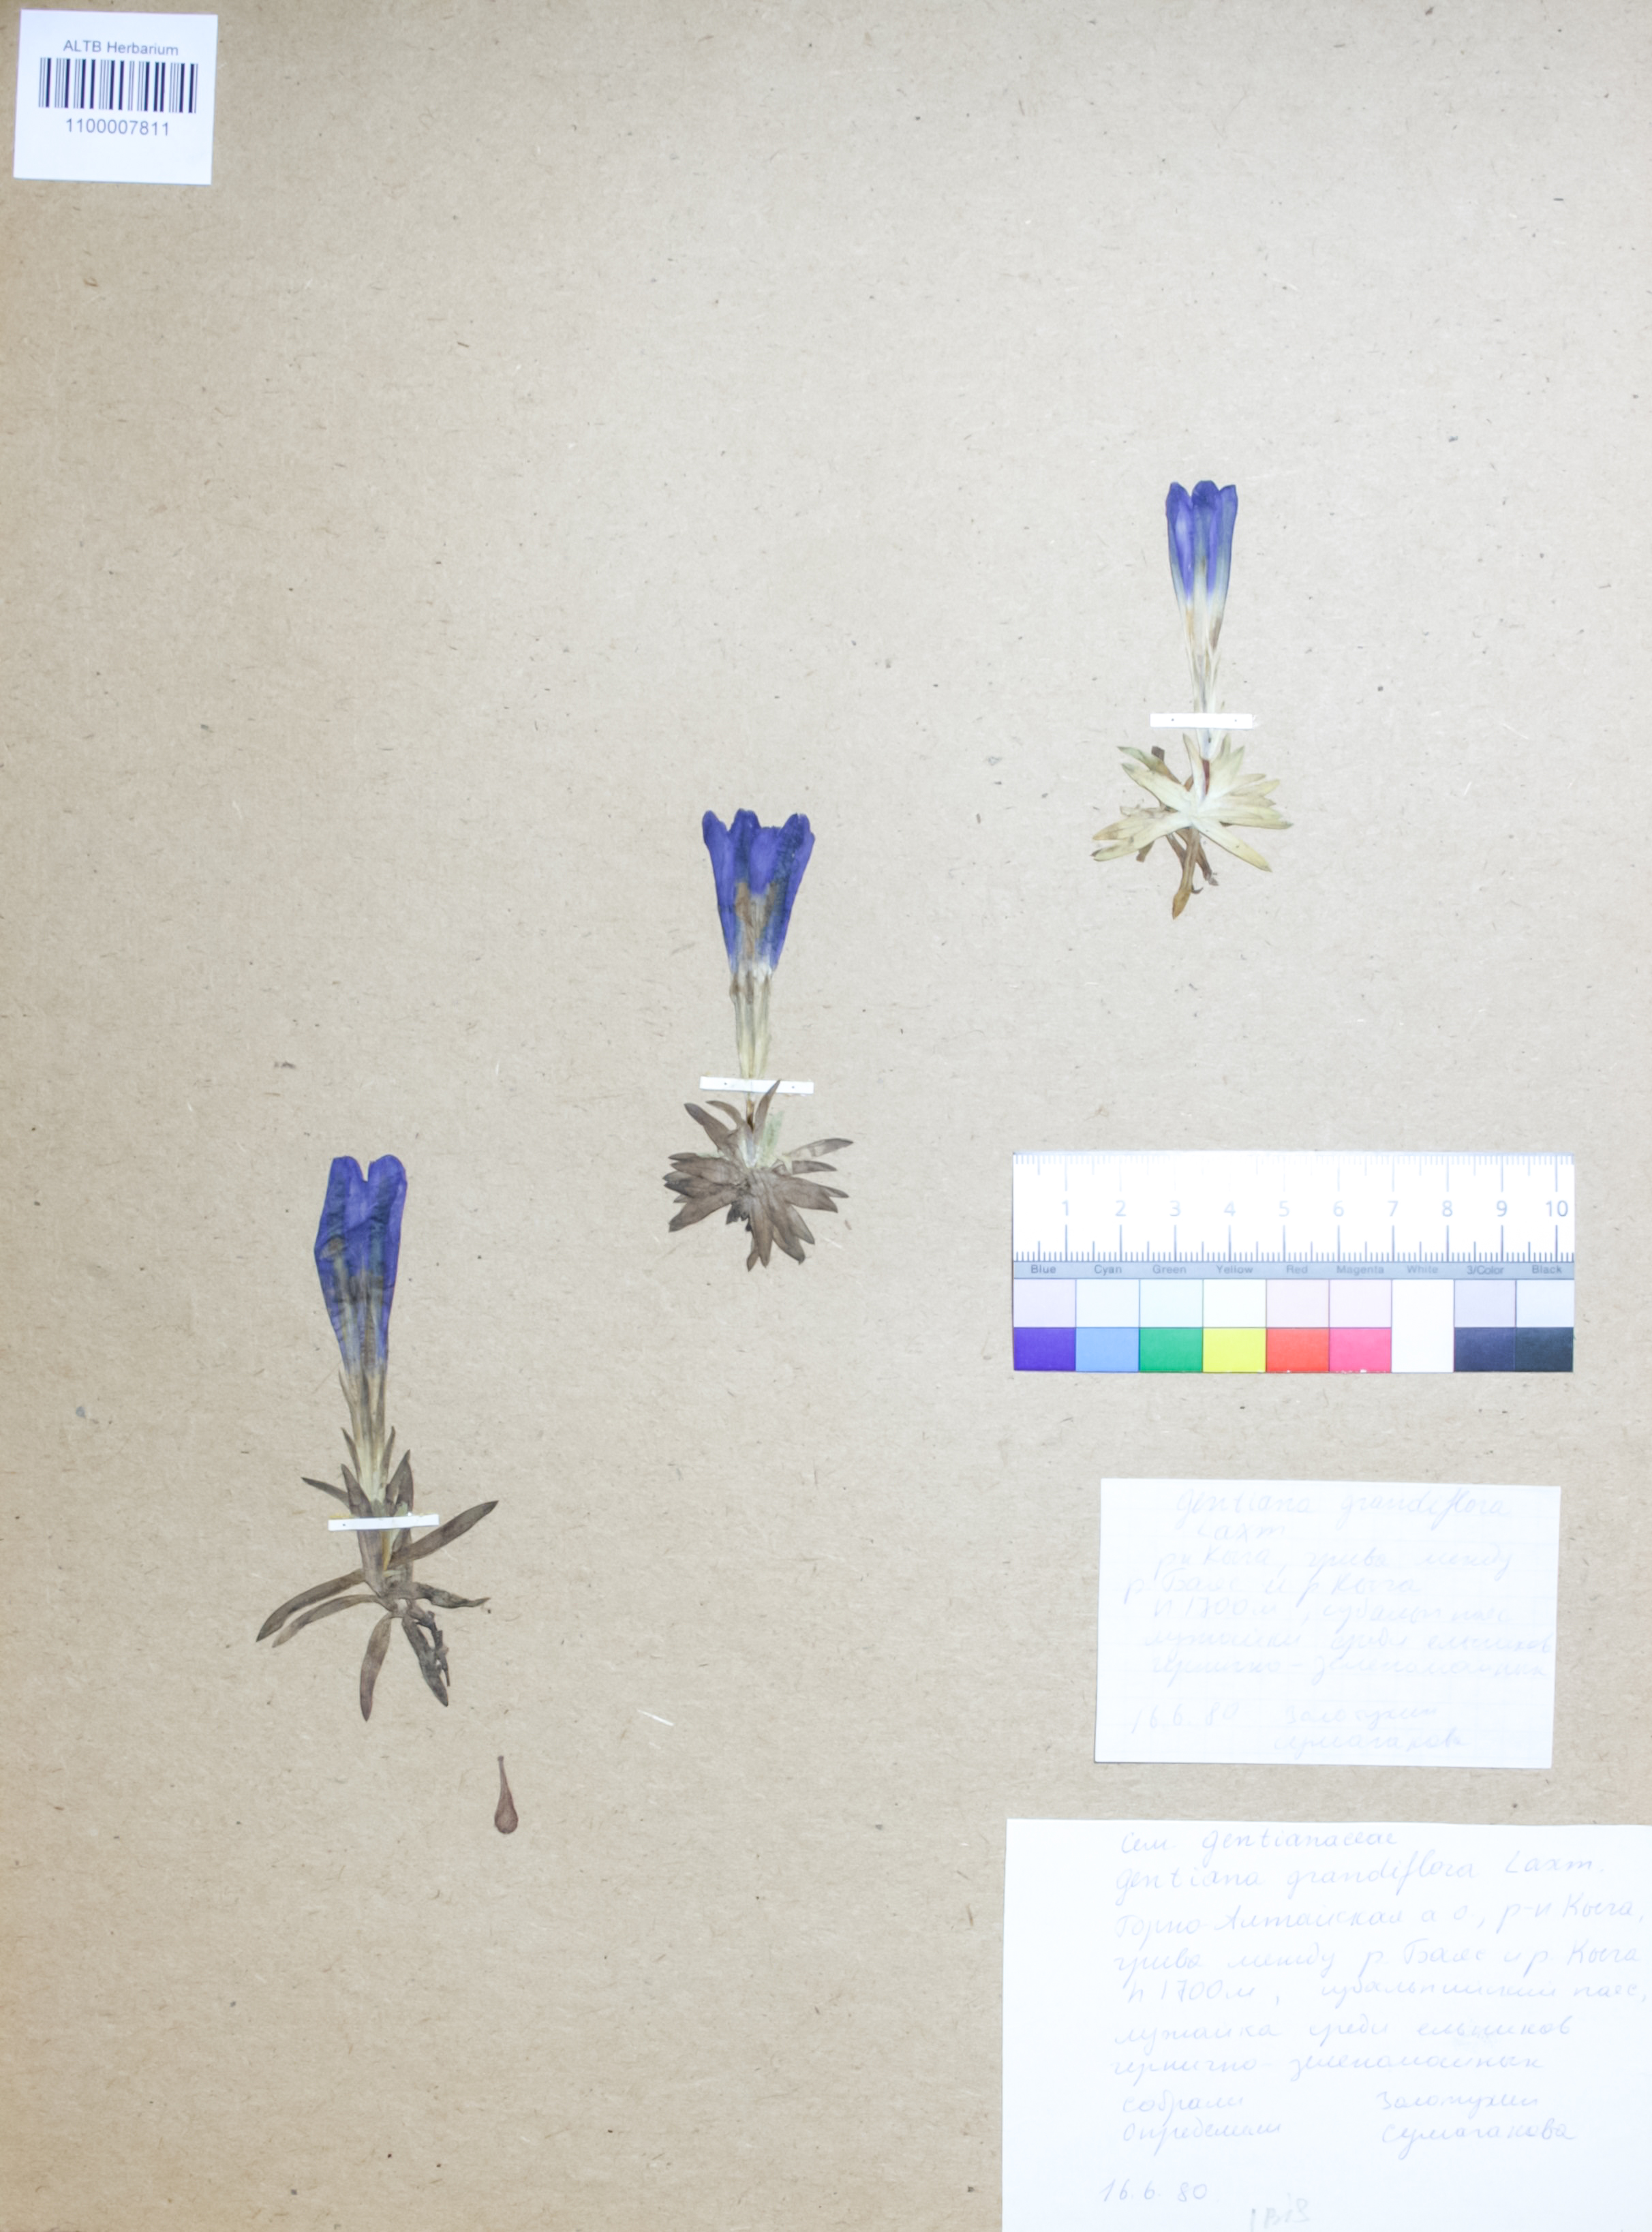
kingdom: Plantae
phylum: Tracheophyta
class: Magnoliopsida
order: Gentianales
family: Gentianaceae
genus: Gentiana
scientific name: Gentiana grandiflora
